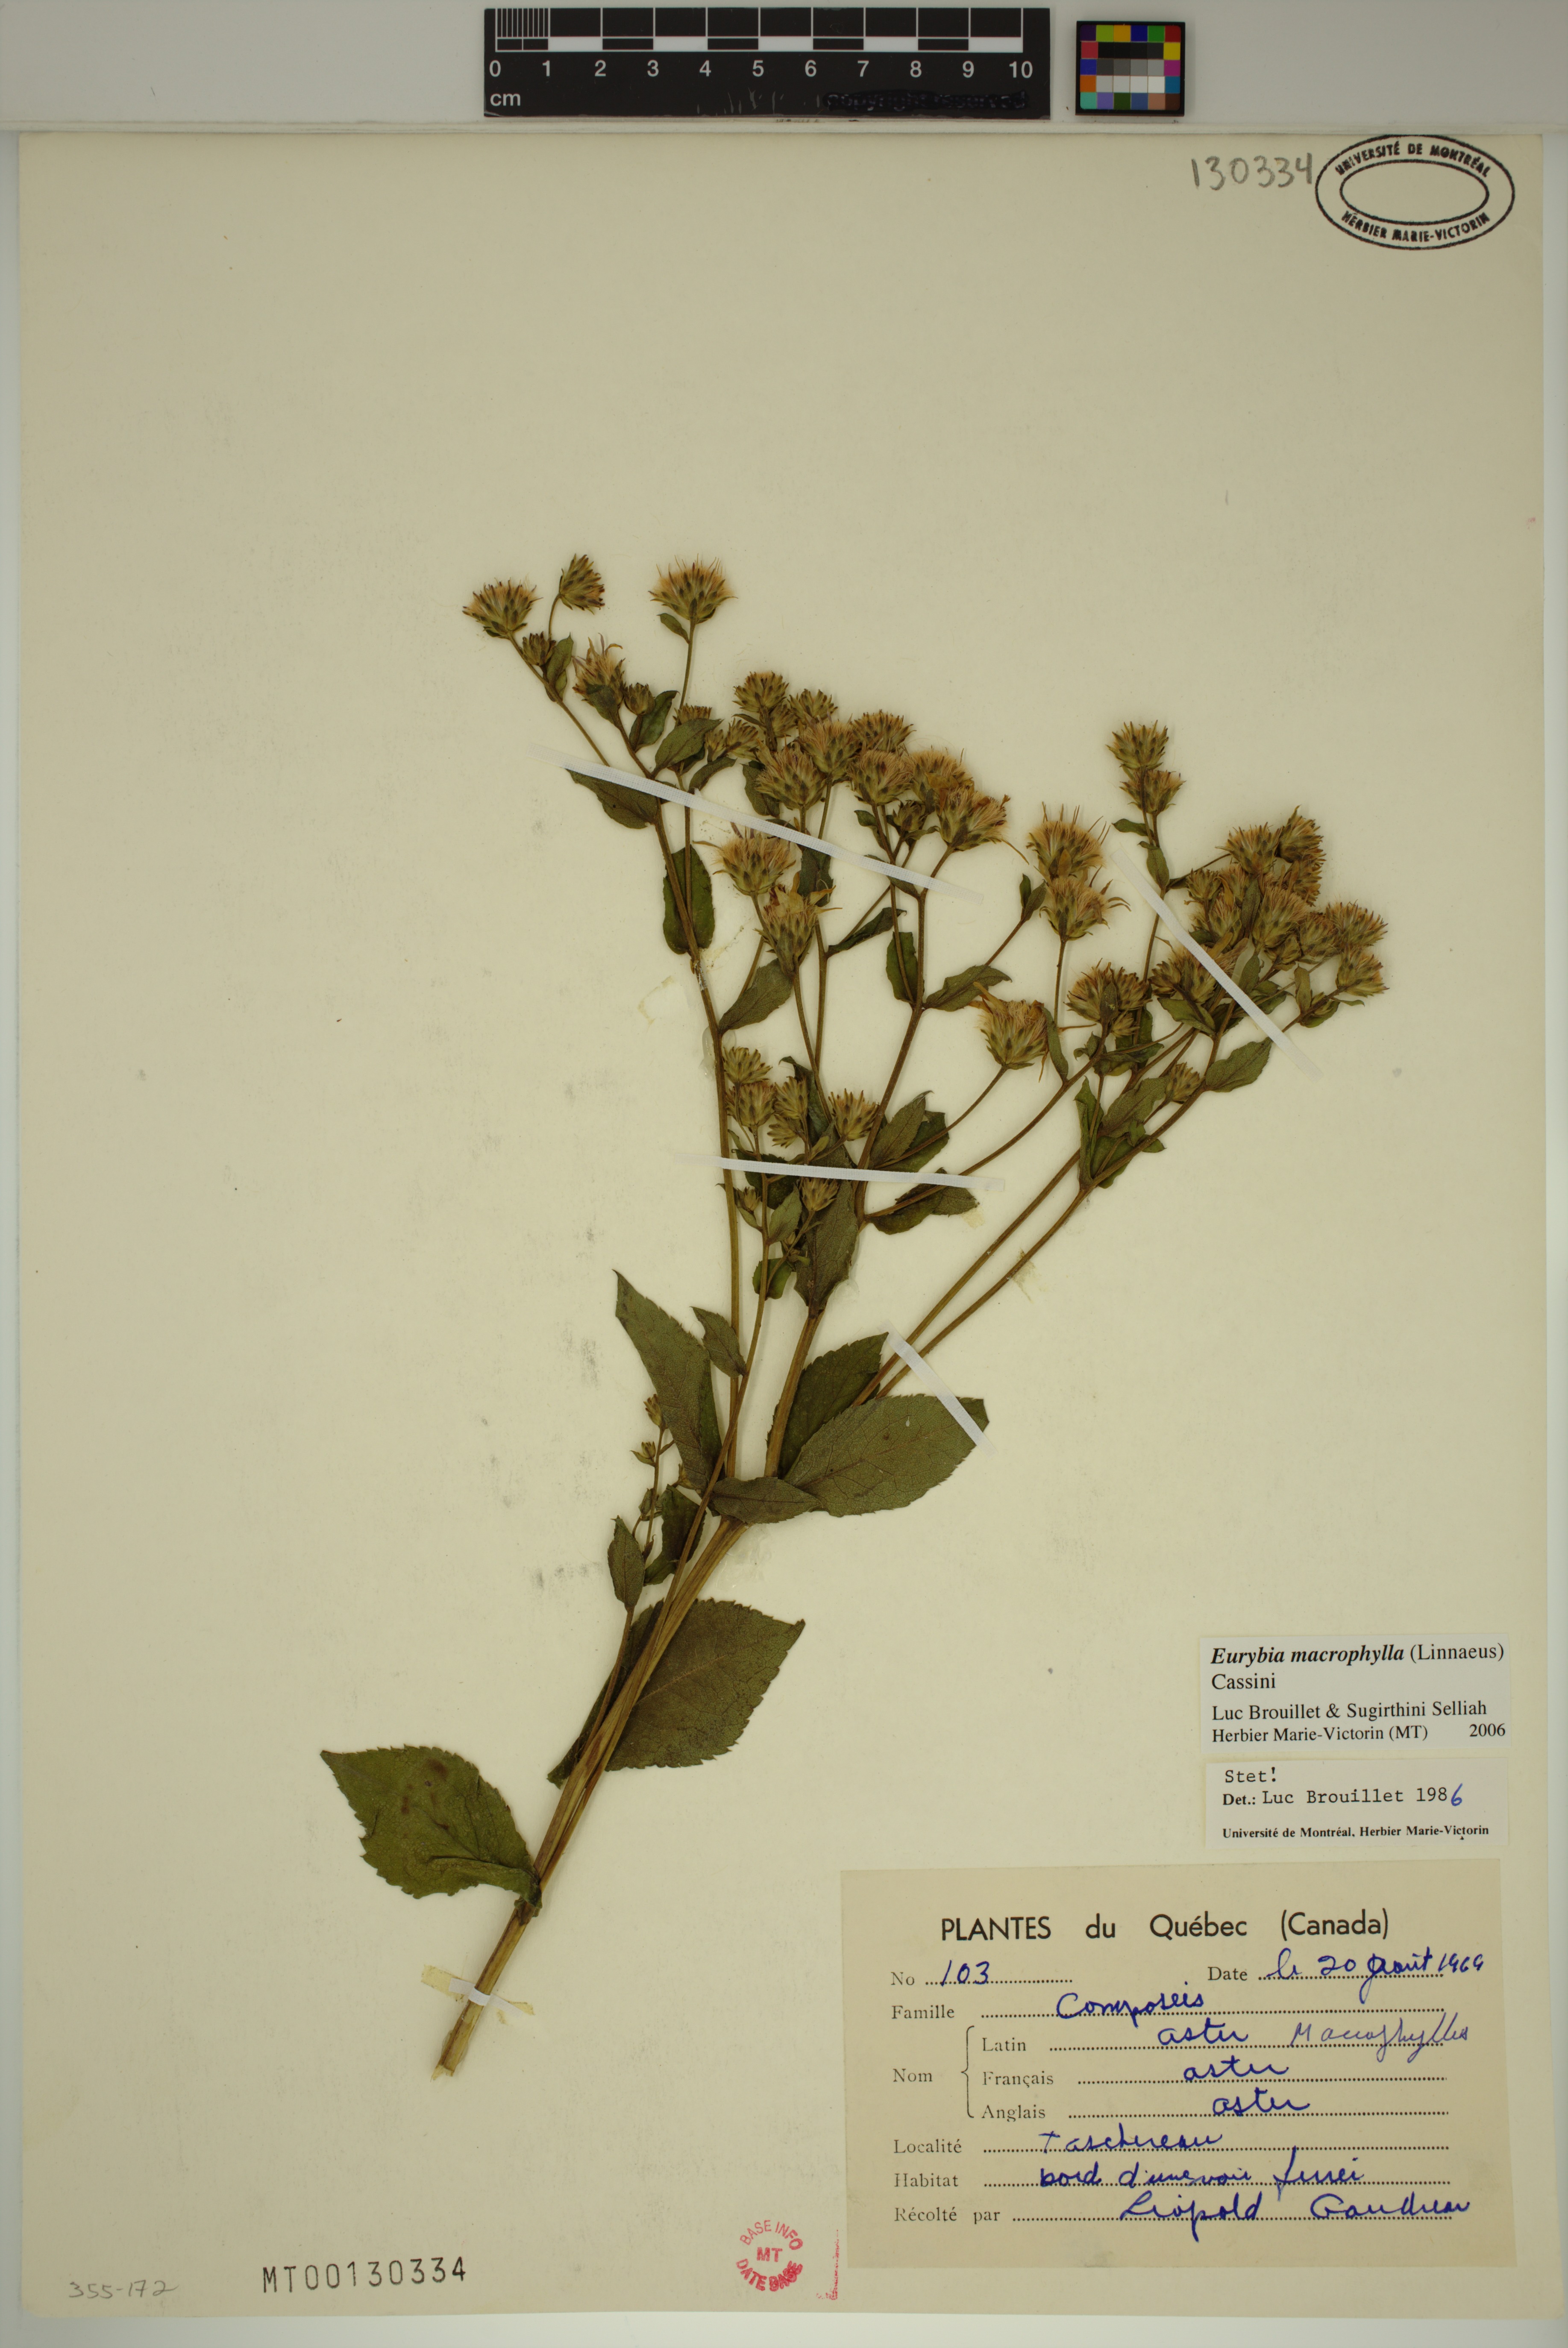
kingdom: Plantae
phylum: Tracheophyta
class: Magnoliopsida
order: Asterales
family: Asteraceae
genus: Eurybia
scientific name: Eurybia macrophylla
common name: Big-leaved aster
